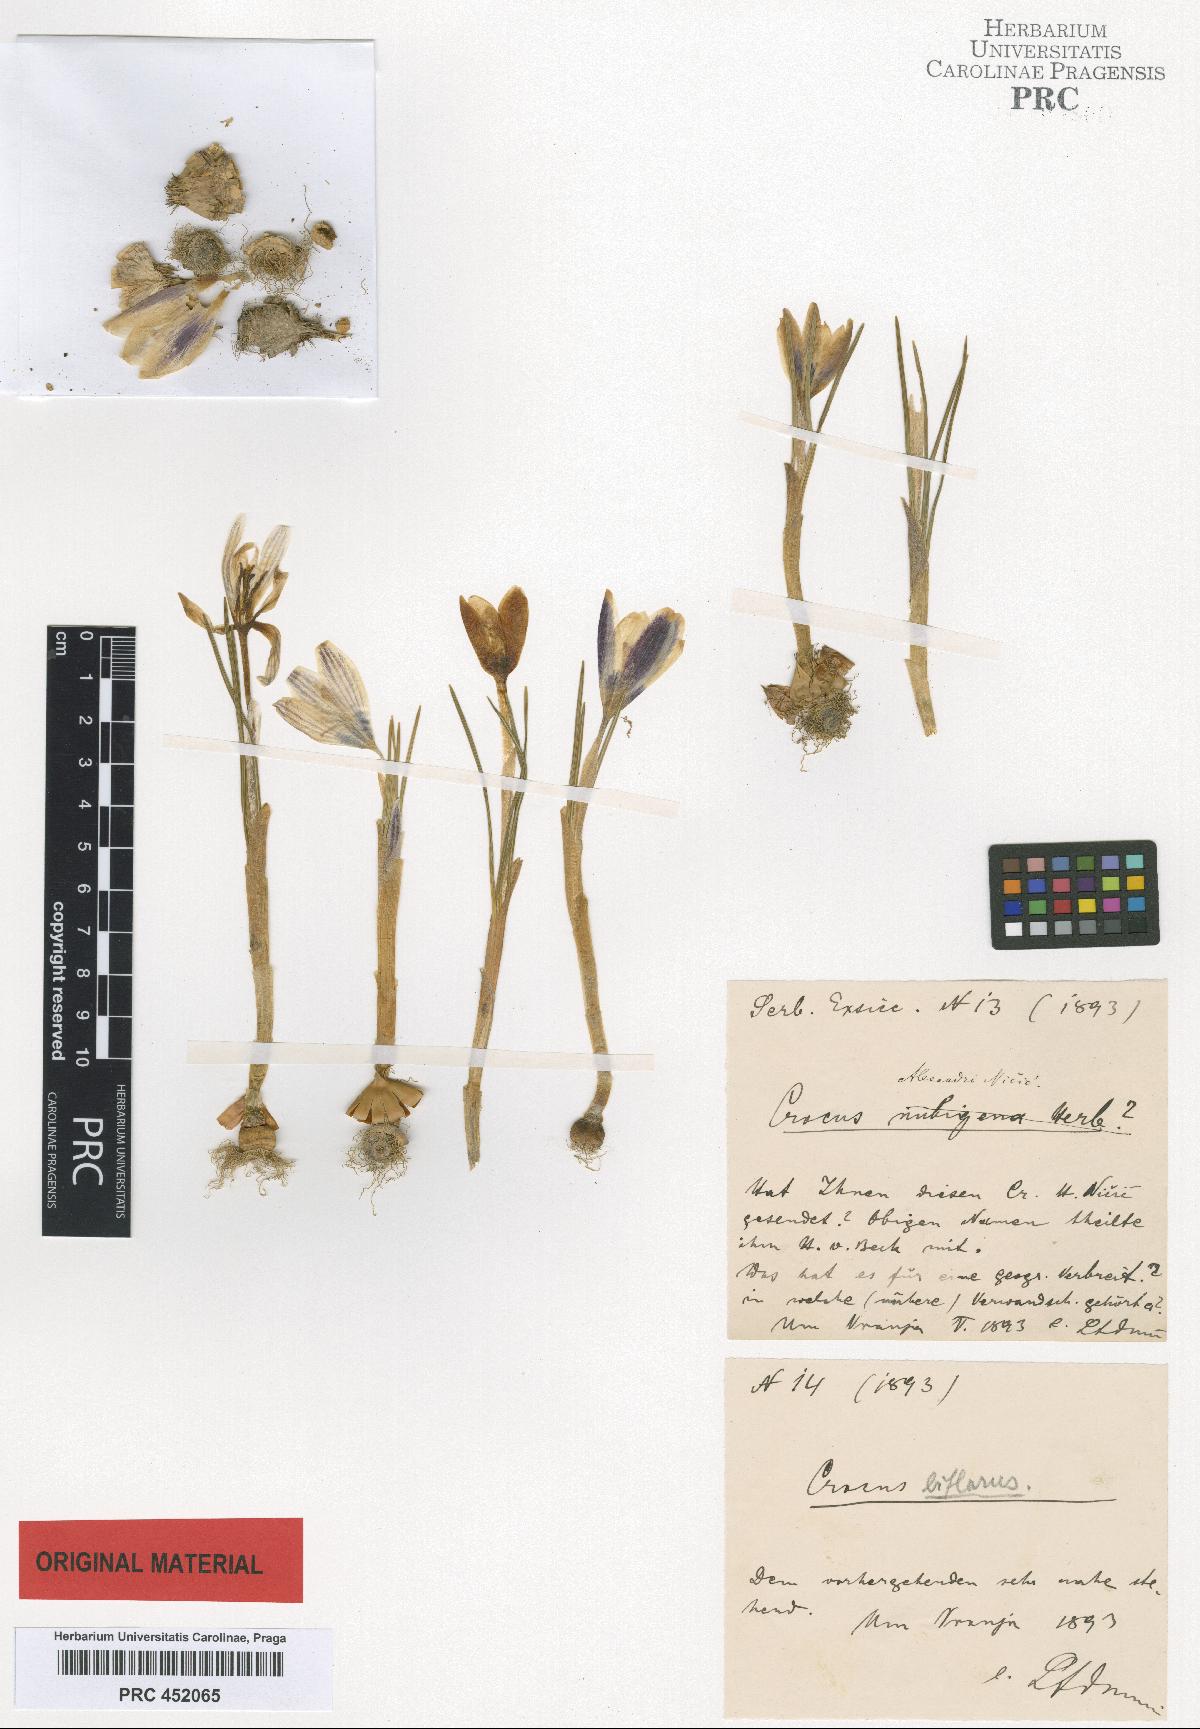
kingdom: Plantae
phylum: Tracheophyta
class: Liliopsida
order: Asparagales
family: Iridaceae
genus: Crocus
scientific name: Crocus alexandri
